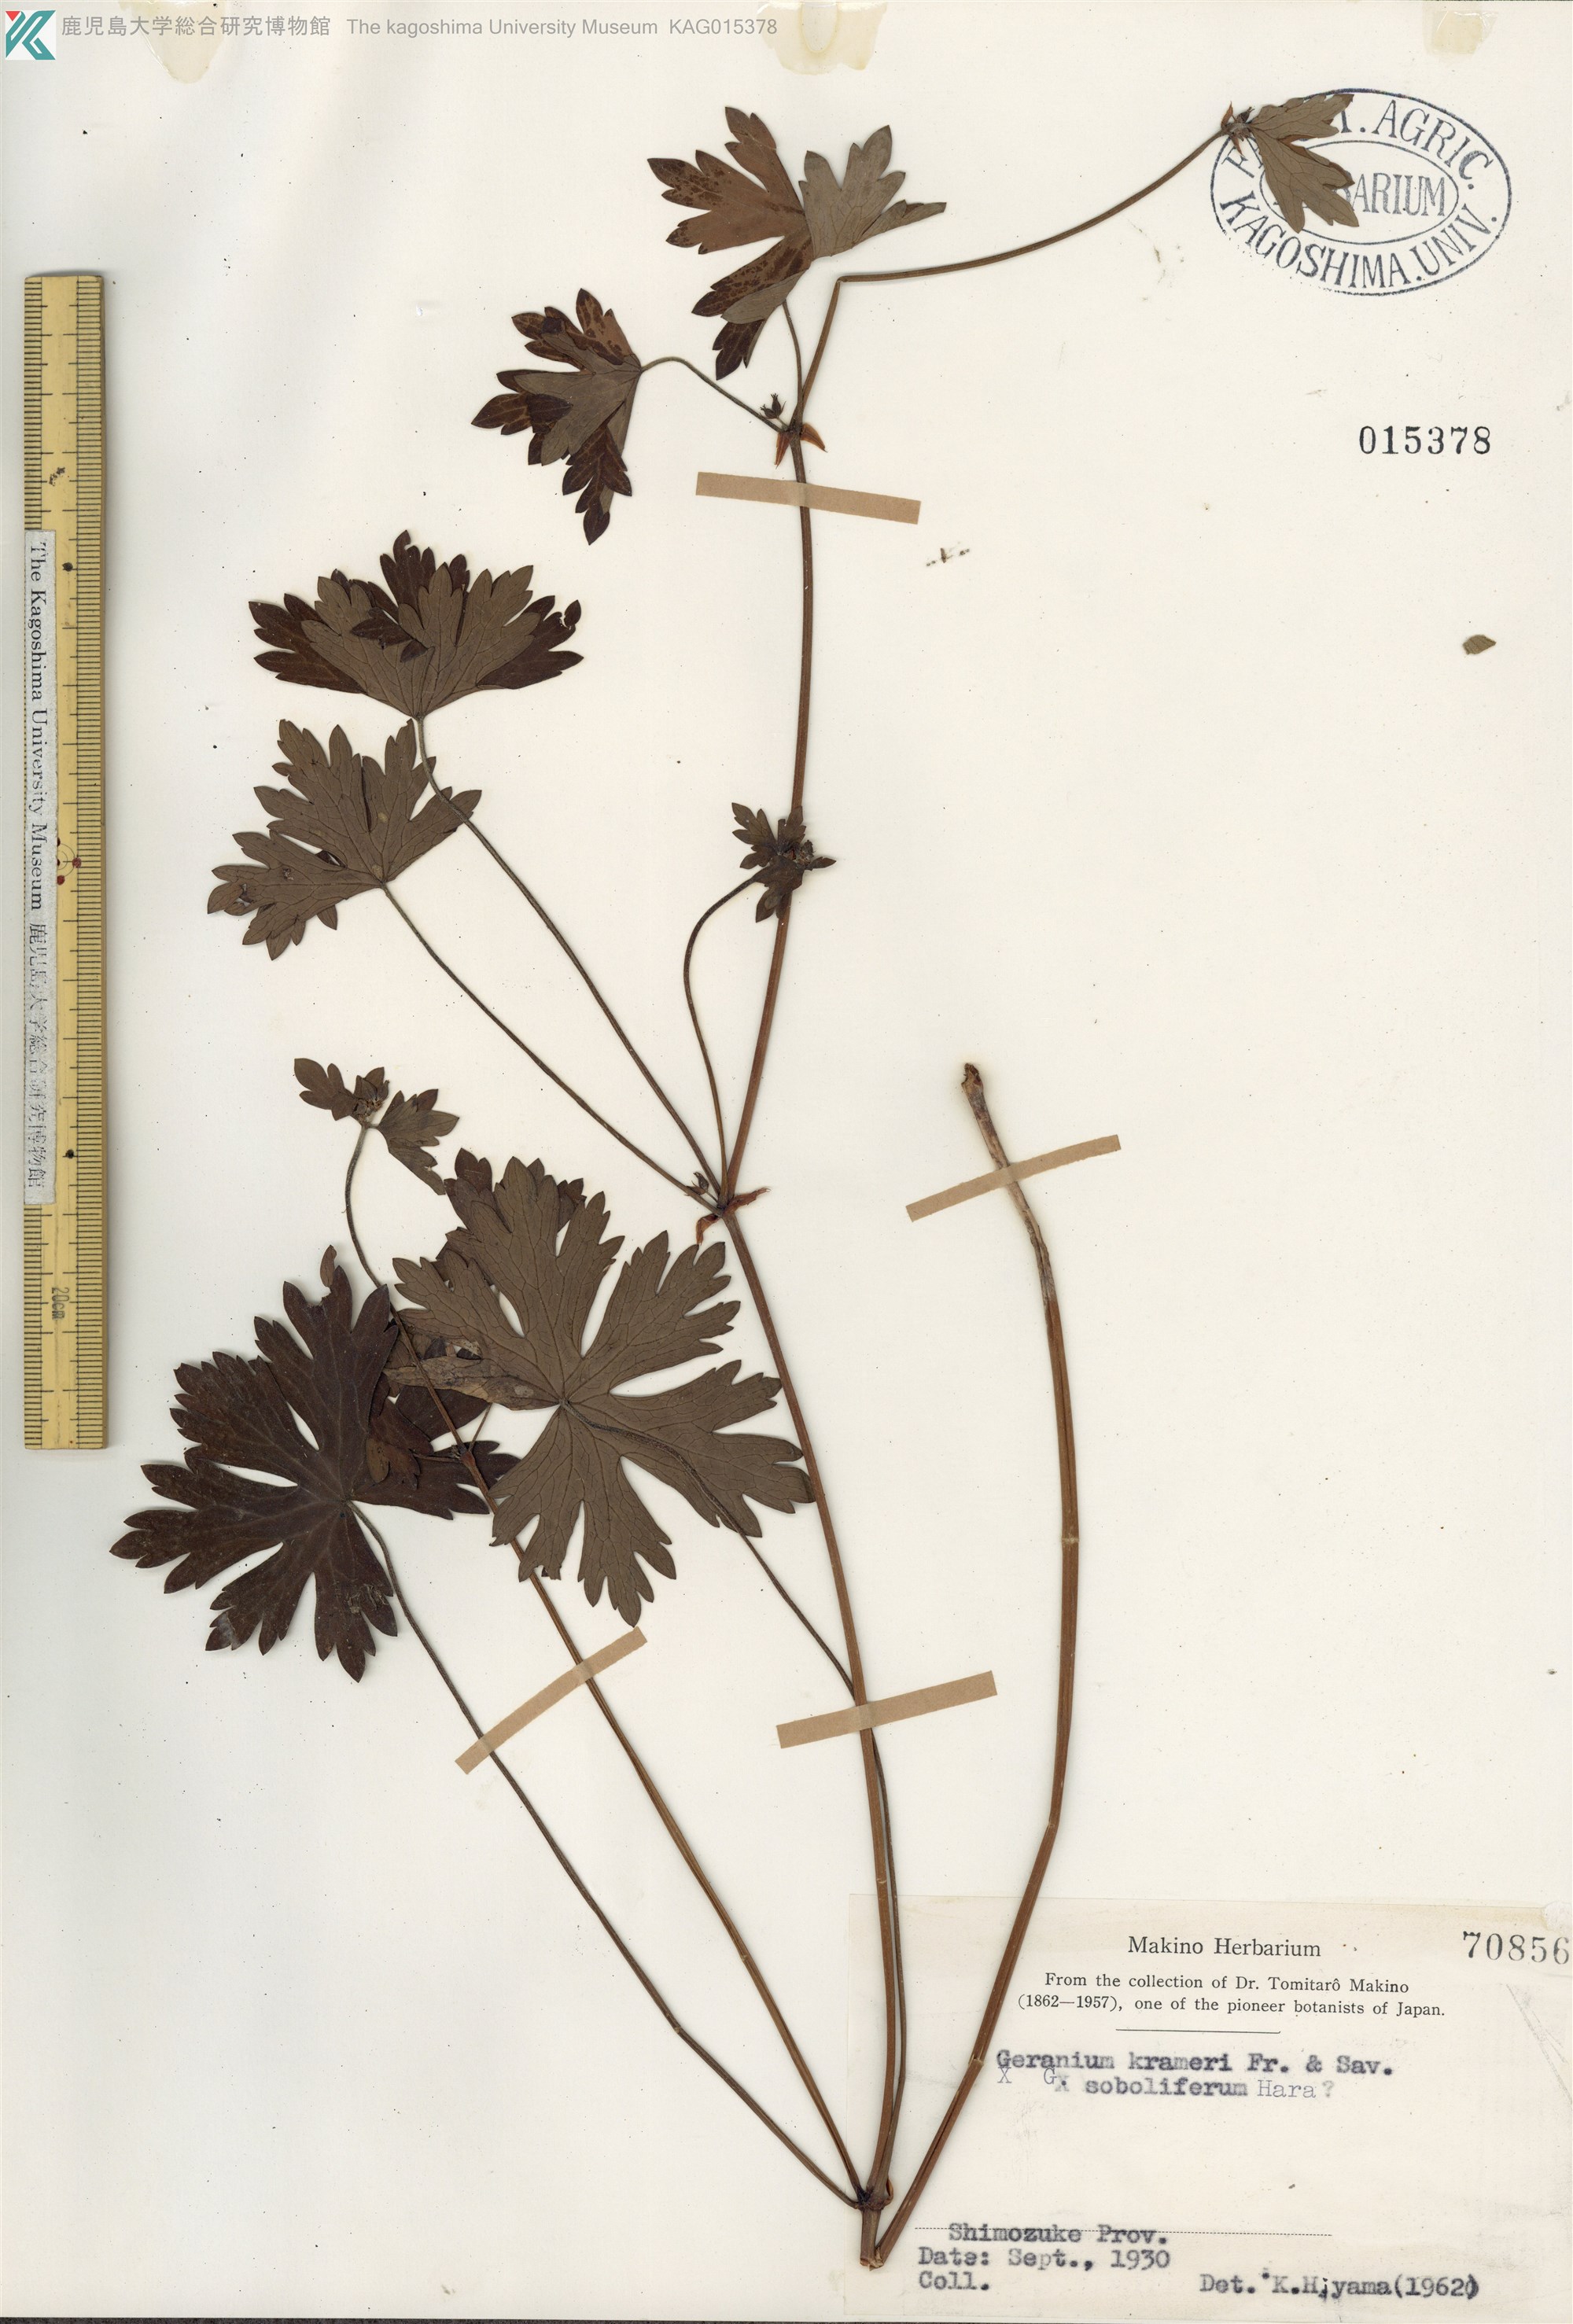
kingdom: Plantae
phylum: Tracheophyta
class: Magnoliopsida
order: Geraniales
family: Geraniaceae
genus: Geranium
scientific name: Geranium krameri
